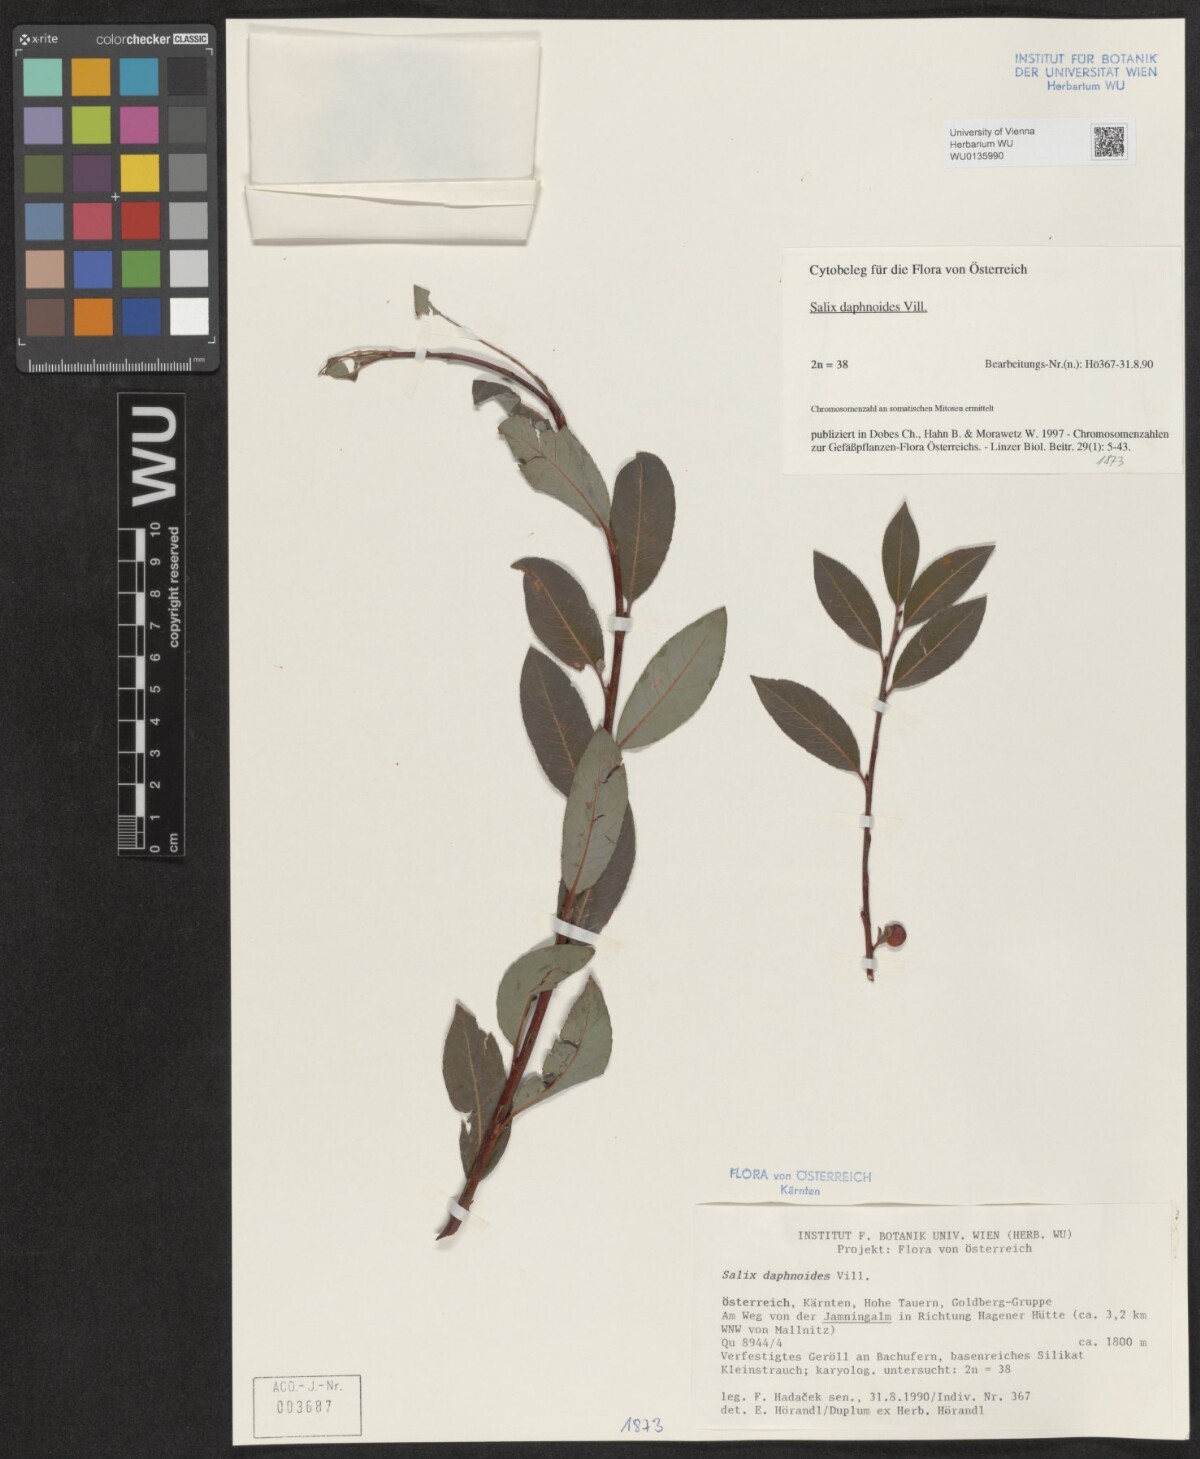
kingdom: Plantae
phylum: Tracheophyta
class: Magnoliopsida
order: Malpighiales
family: Salicaceae
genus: Salix
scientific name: Salix daphnoides
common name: European violet-willow
